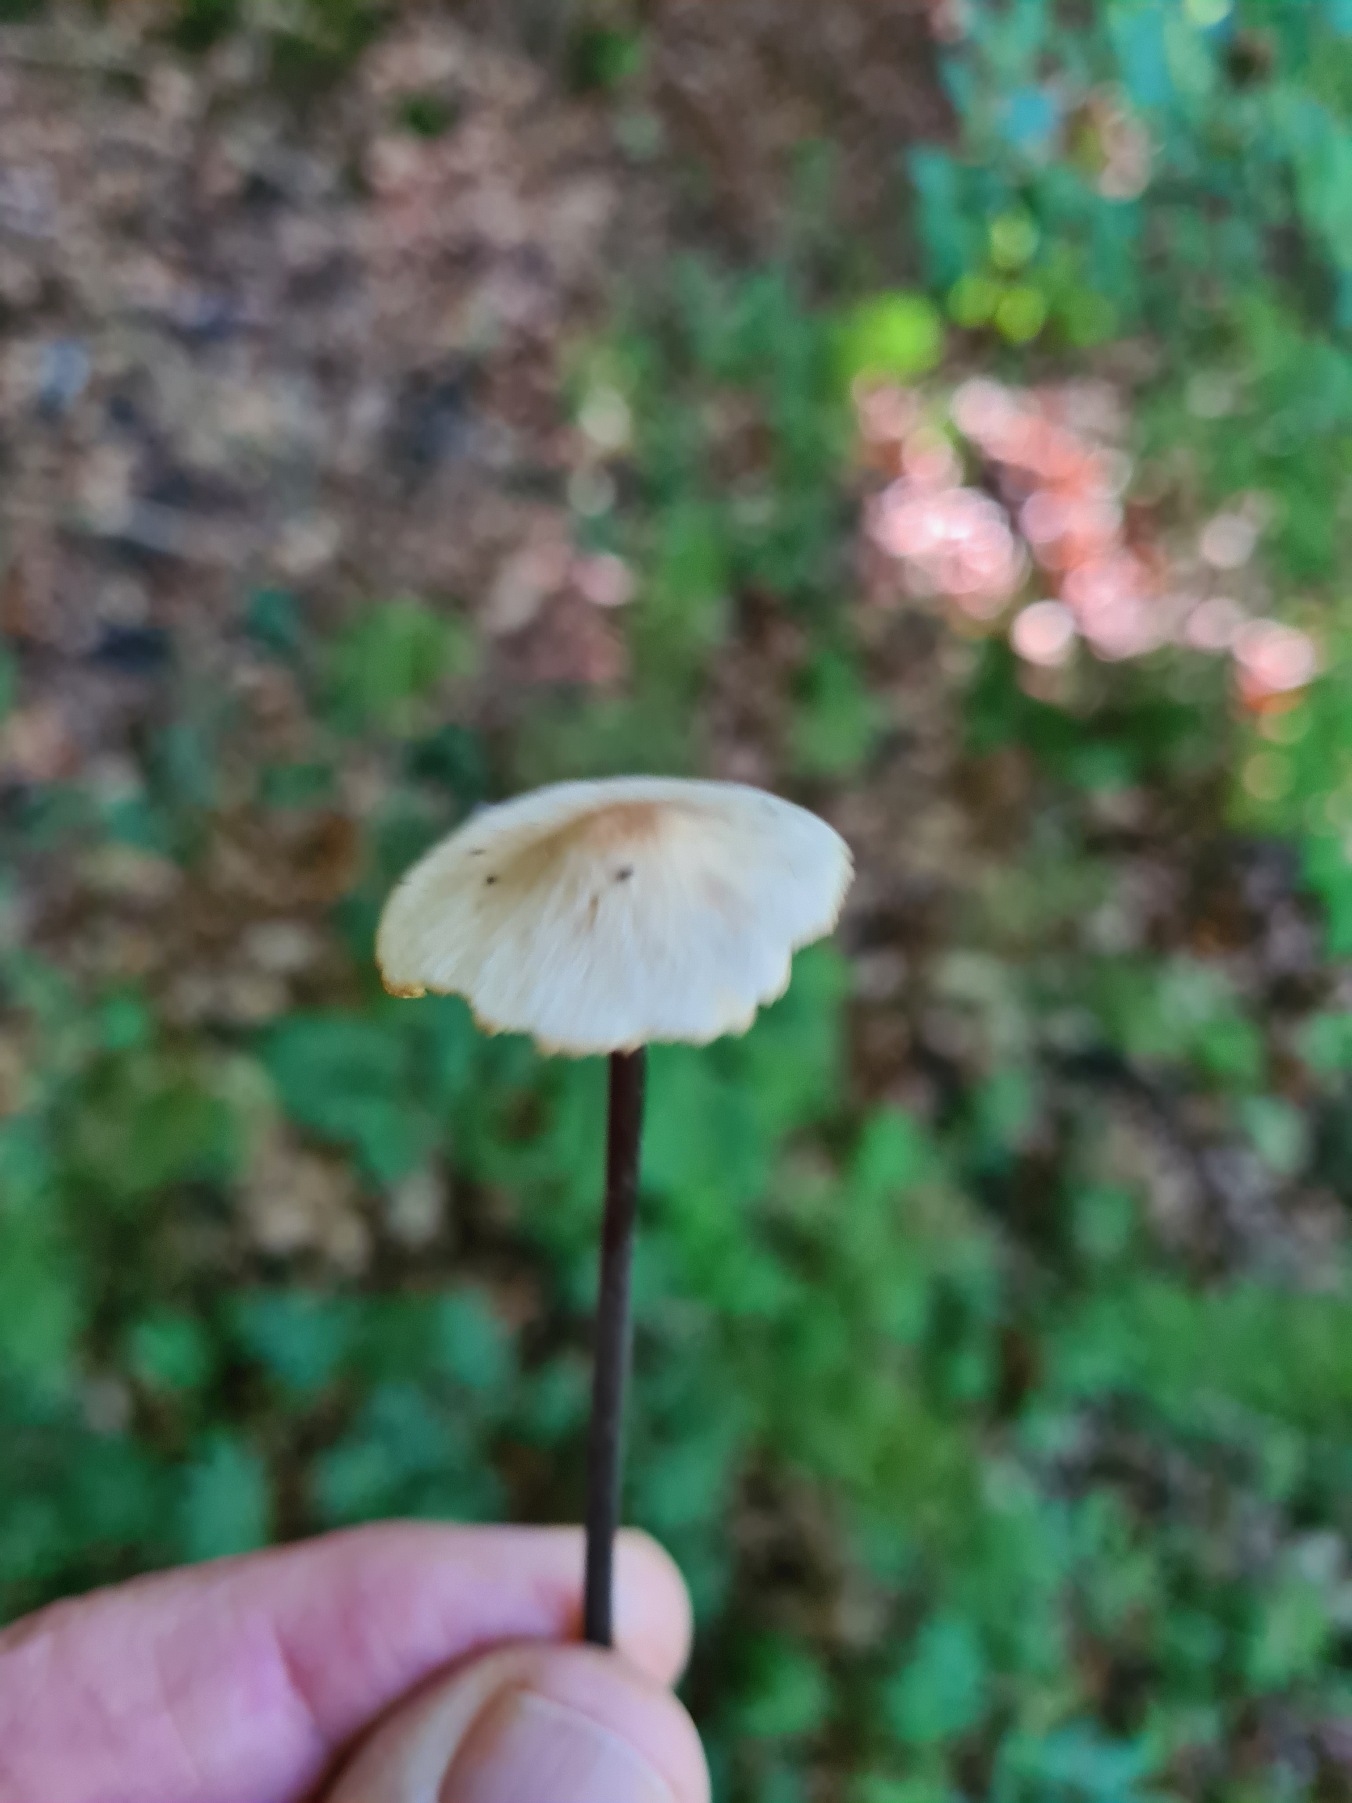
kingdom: Fungi
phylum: Basidiomycota
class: Agaricomycetes
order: Agaricales
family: Omphalotaceae
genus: Mycetinis
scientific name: Mycetinis alliaceus
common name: Stor løghat
